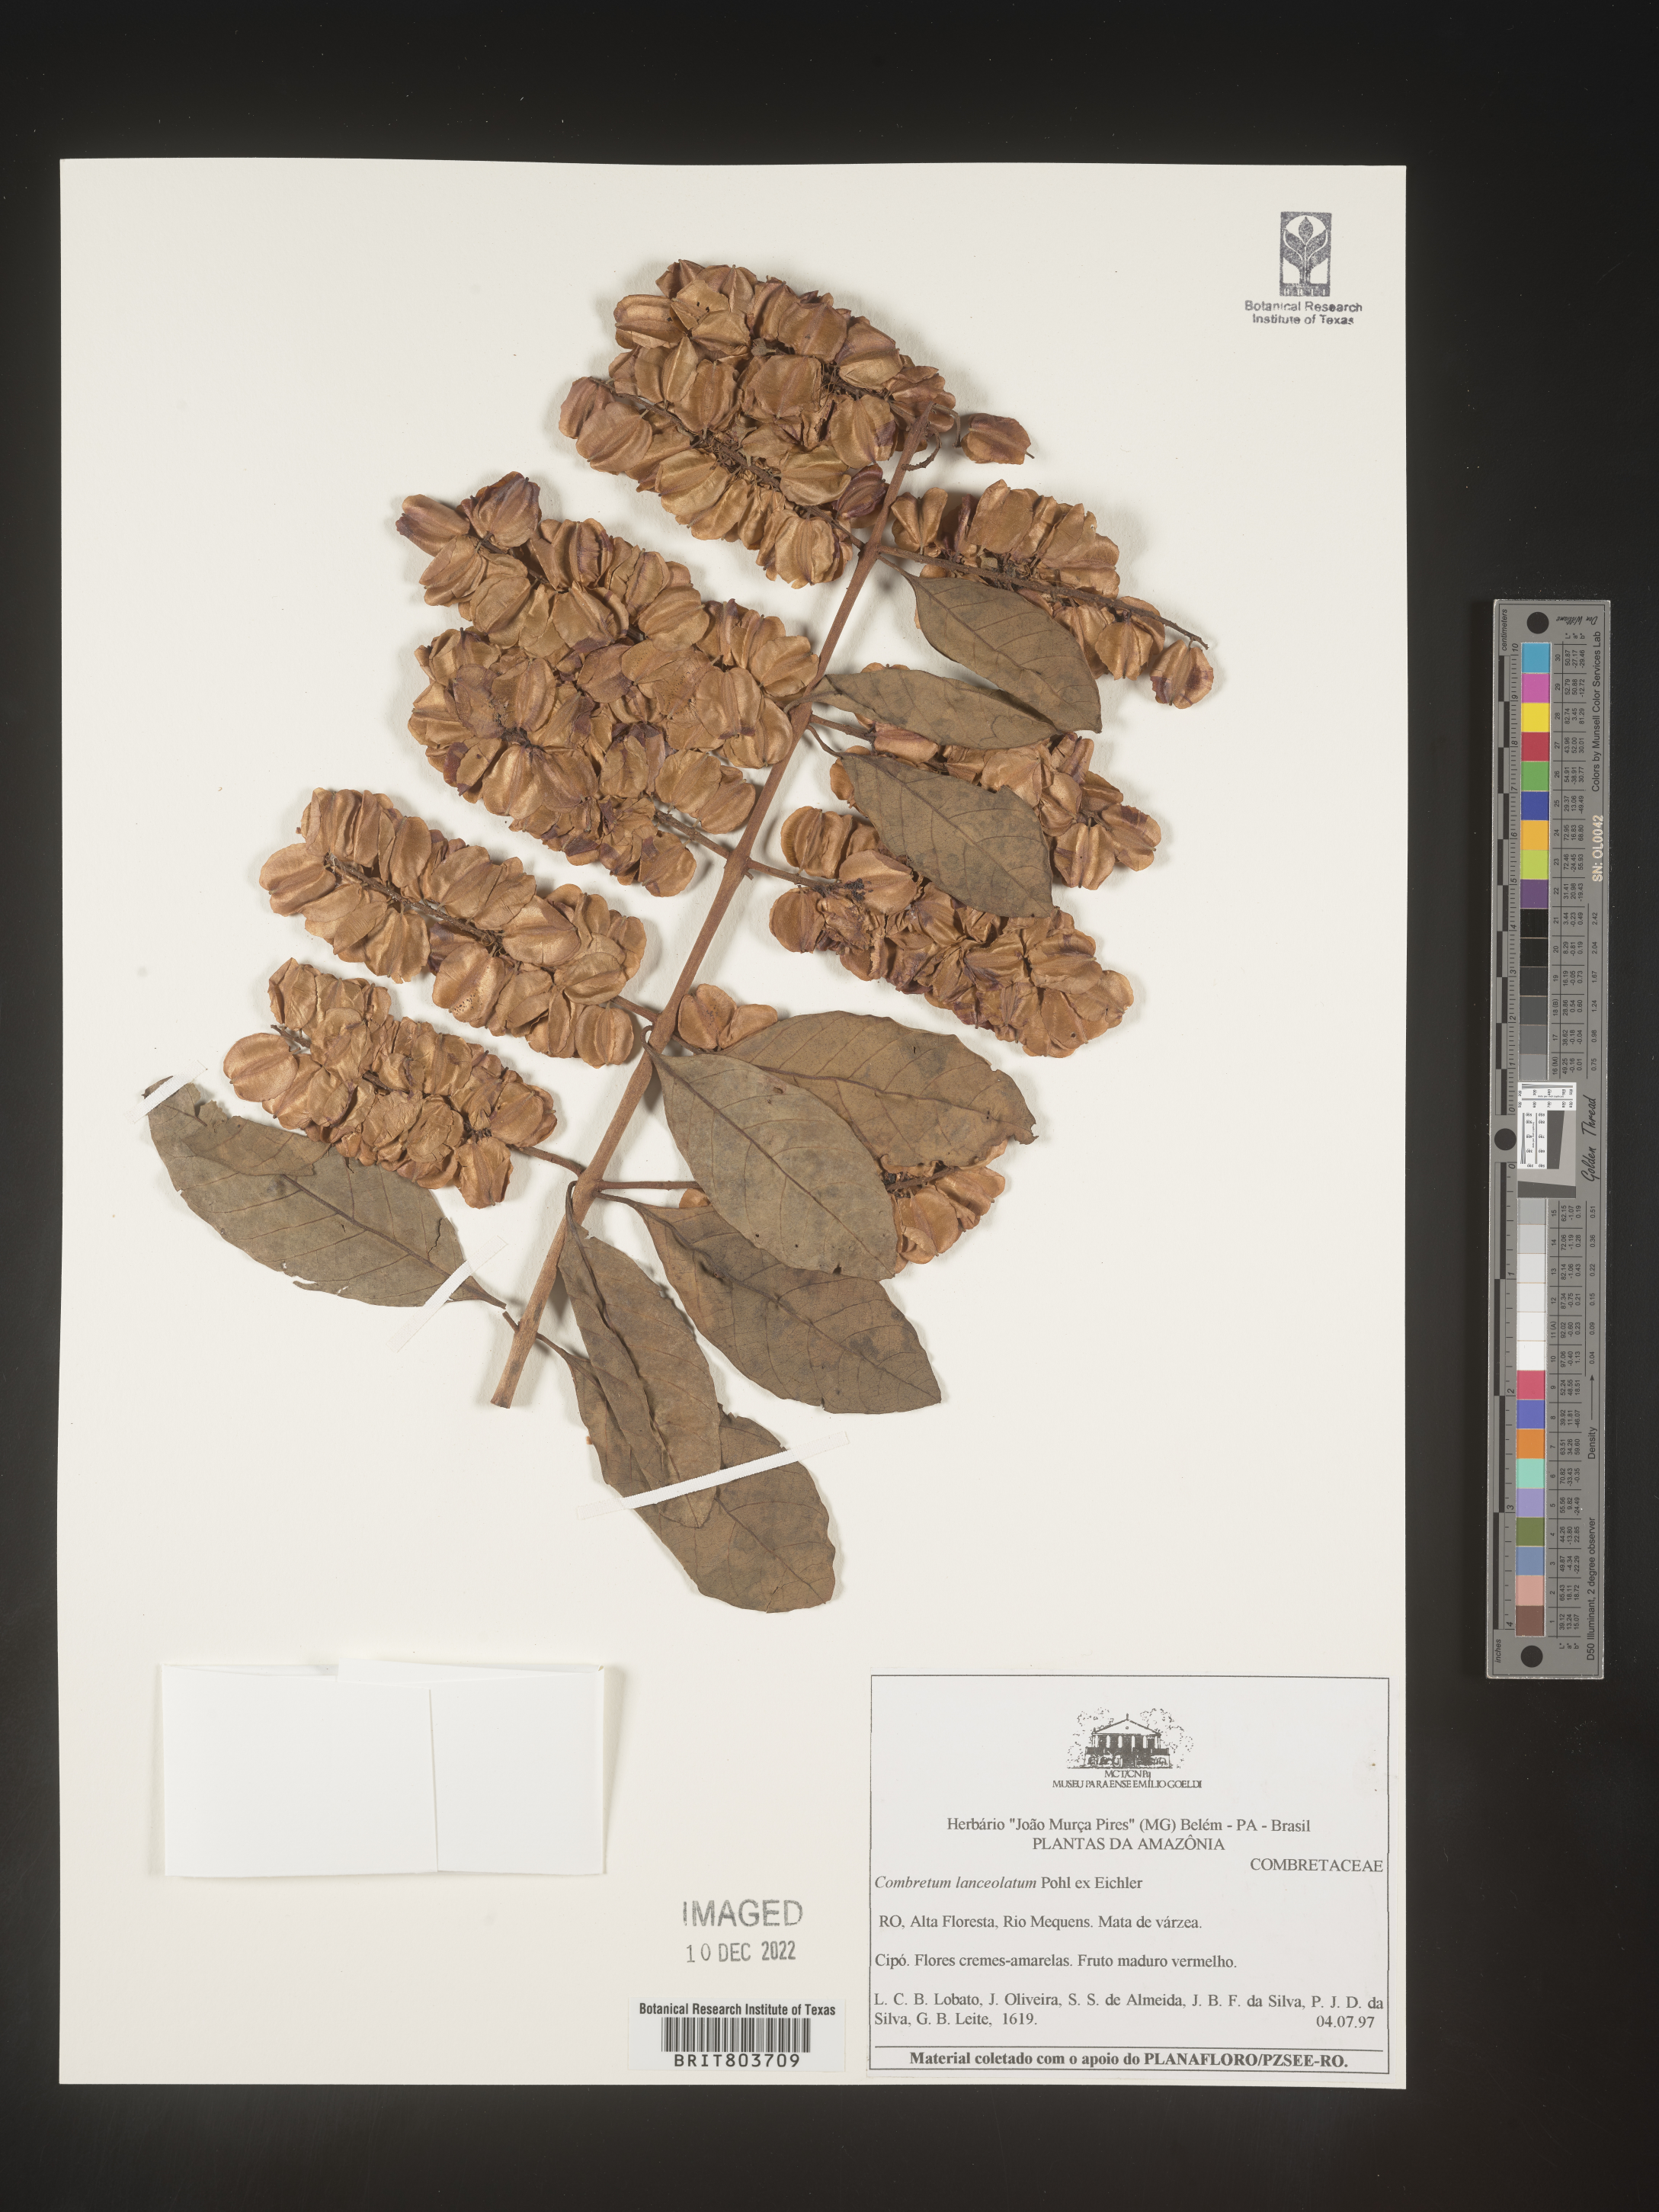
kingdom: Plantae
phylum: Tracheophyta
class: Magnoliopsida
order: Myrtales
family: Combretaceae
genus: Combretum
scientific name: Combretum
